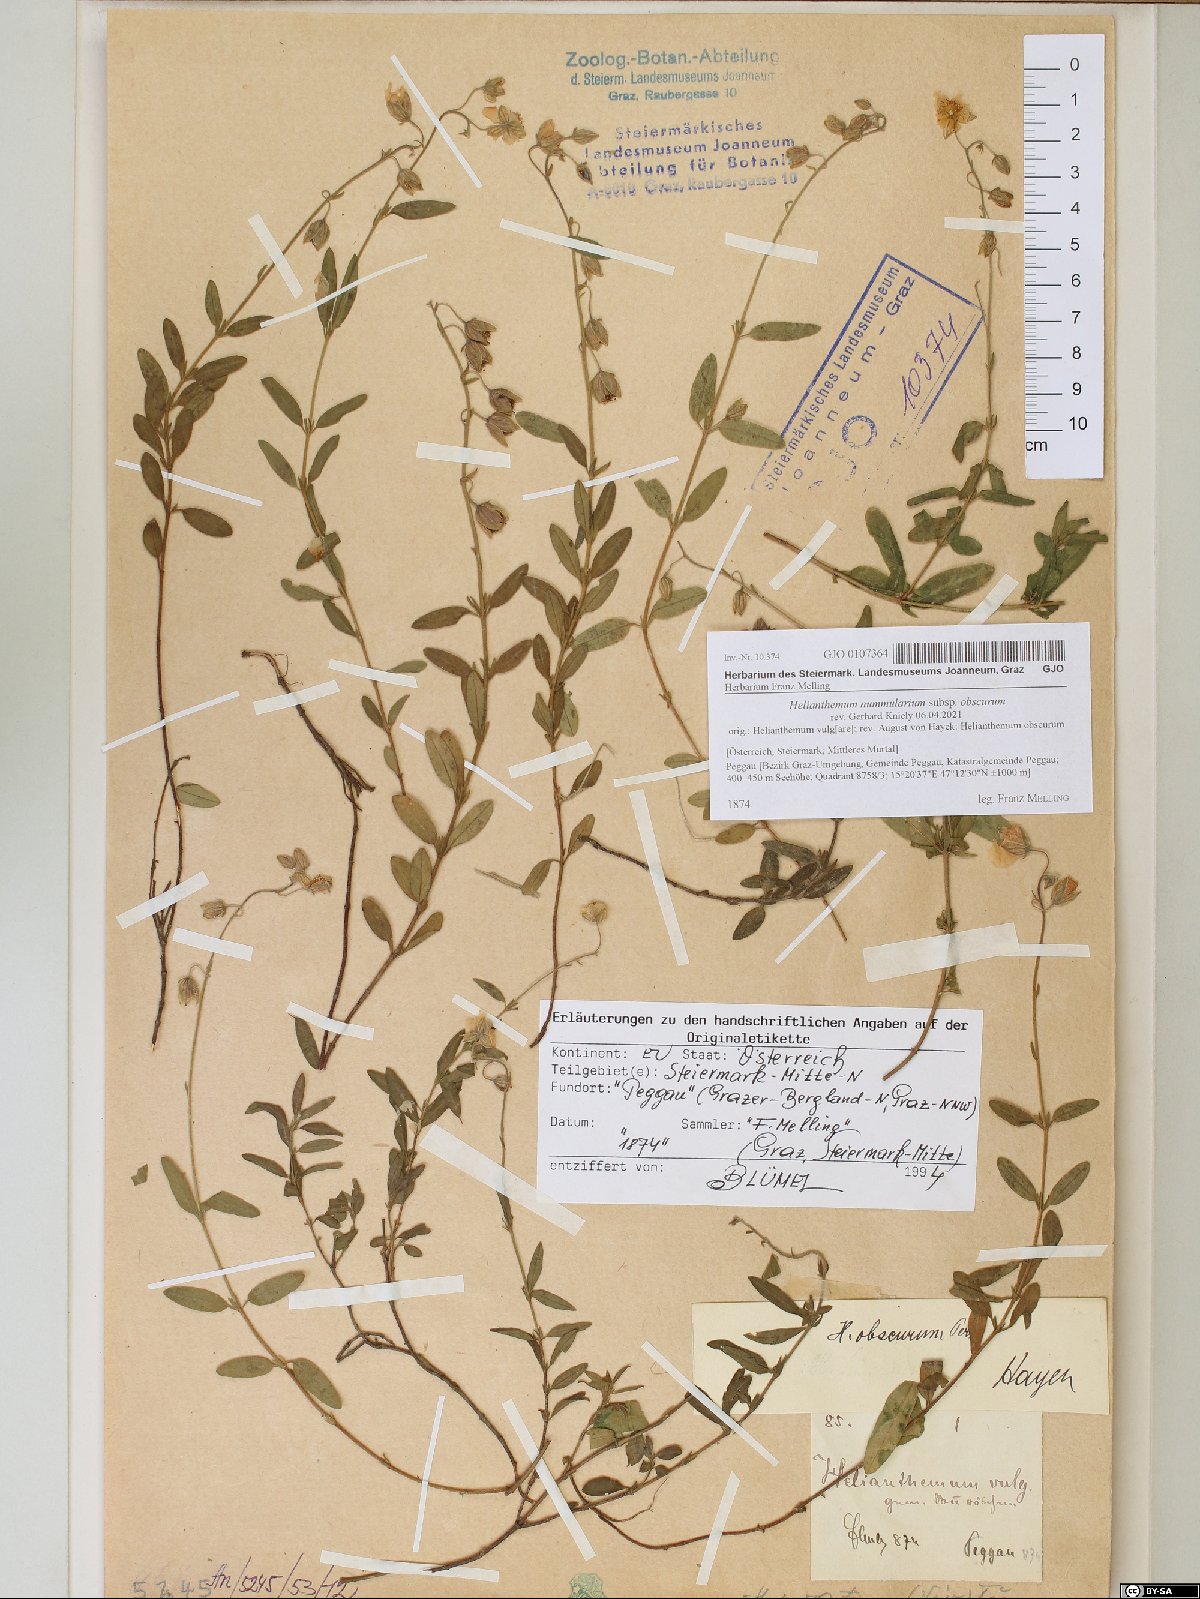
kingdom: Plantae
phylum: Tracheophyta
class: Magnoliopsida
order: Malvales
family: Cistaceae
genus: Helianthemum
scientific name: Helianthemum nummularium
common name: Common rock-rose
